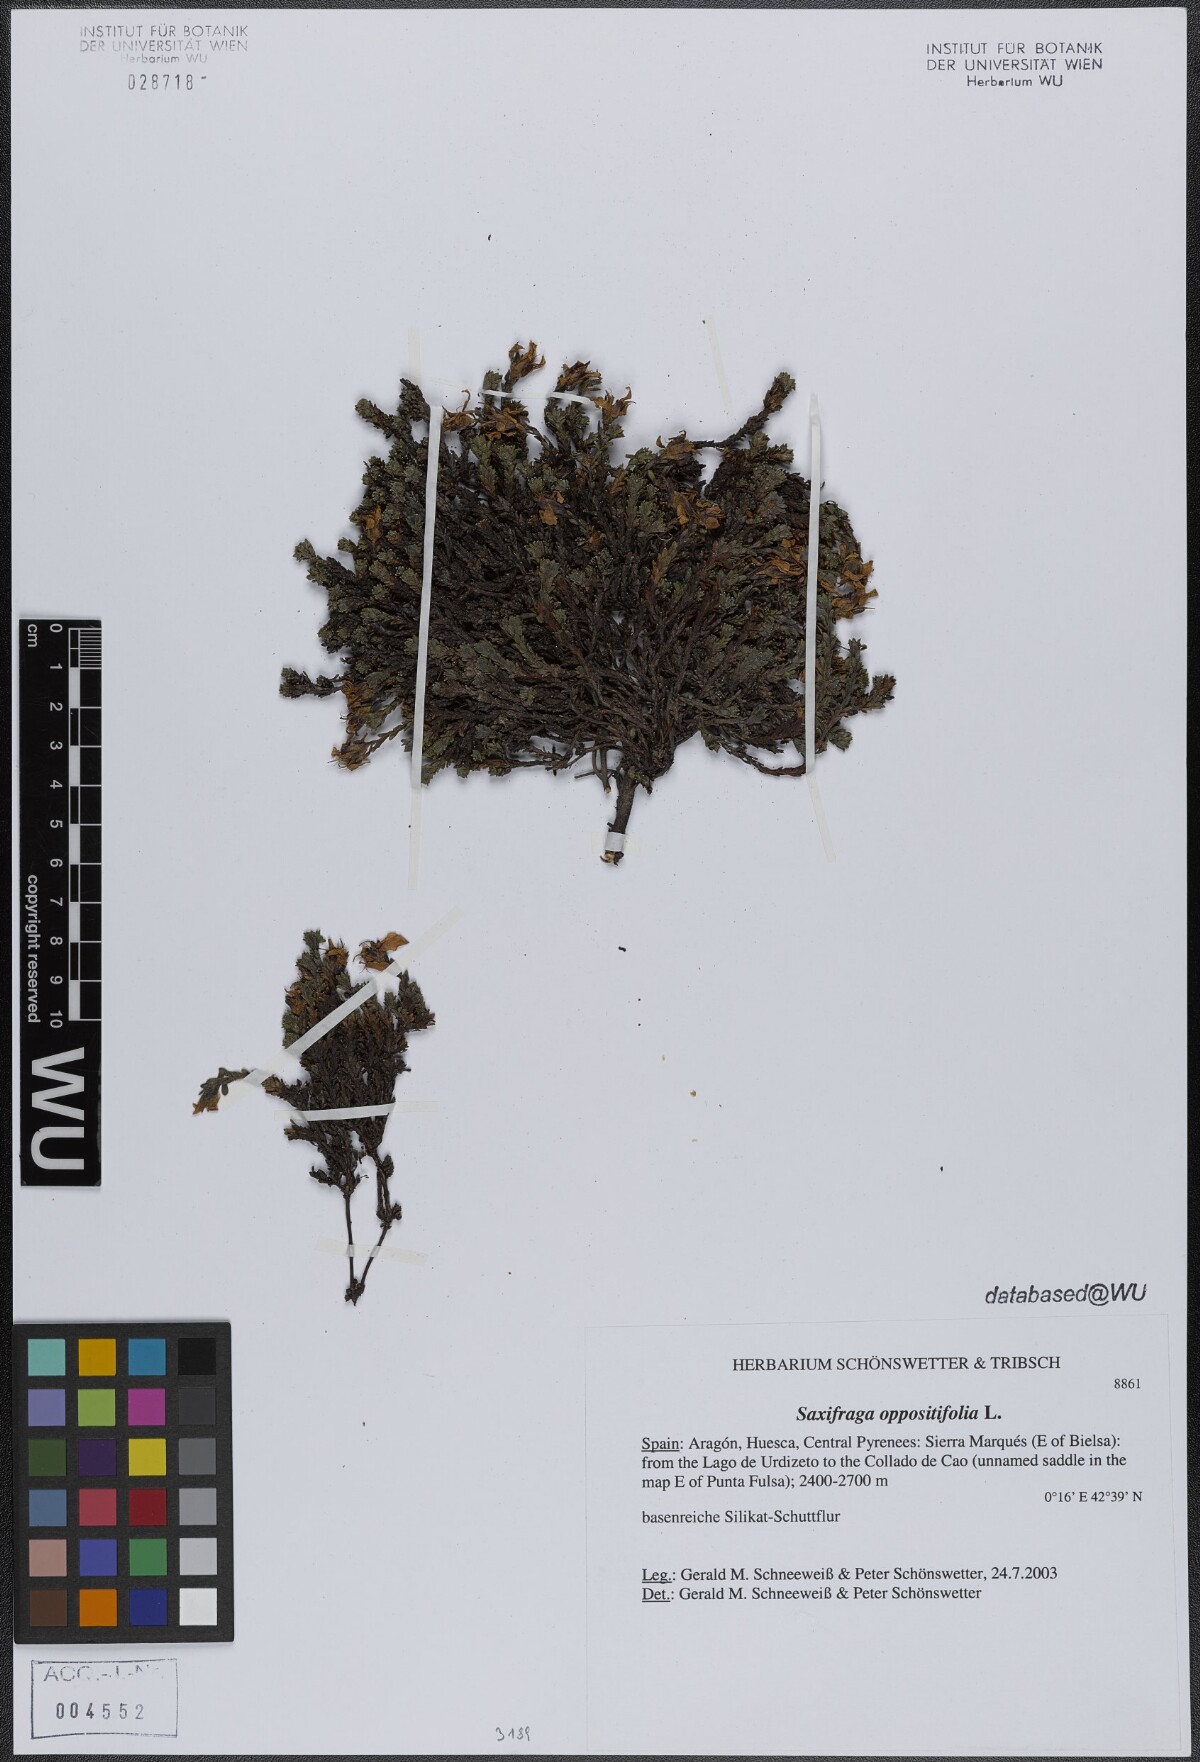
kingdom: Plantae
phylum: Tracheophyta
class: Magnoliopsida
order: Saxifragales
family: Saxifragaceae
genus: Saxifraga
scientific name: Saxifraga oppositifolia
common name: Purple saxifrage
